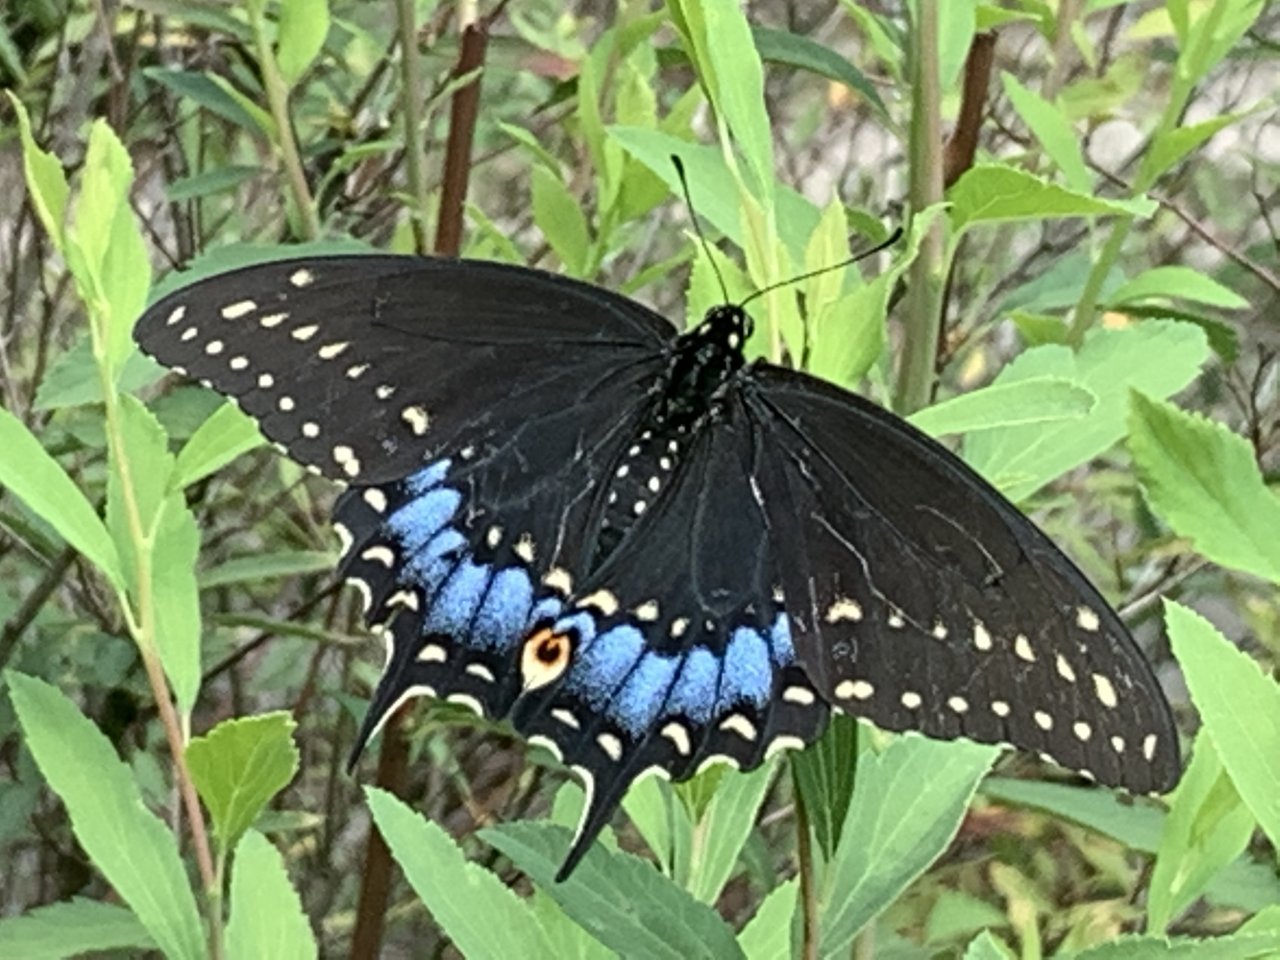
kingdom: Animalia
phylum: Arthropoda
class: Insecta
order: Lepidoptera
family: Papilionidae
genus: Papilio
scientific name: Papilio polyxenes
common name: Black Swallowtail
